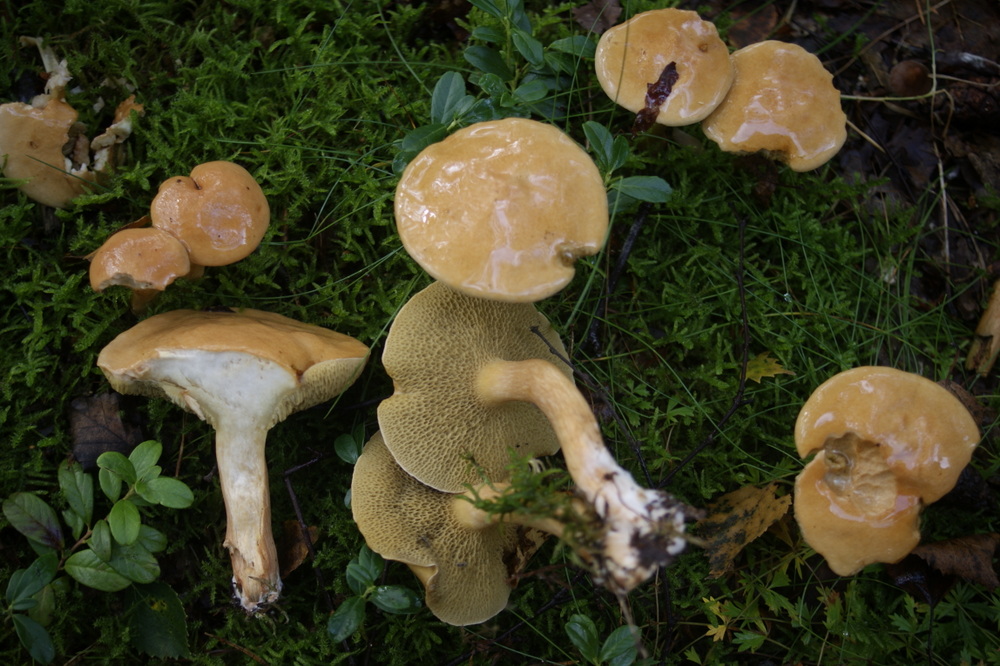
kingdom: Fungi
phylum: Basidiomycota
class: Agaricomycetes
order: Boletales
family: Suillaceae
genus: Suillus
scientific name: Suillus bovinus
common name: grovporet slimrørhat
